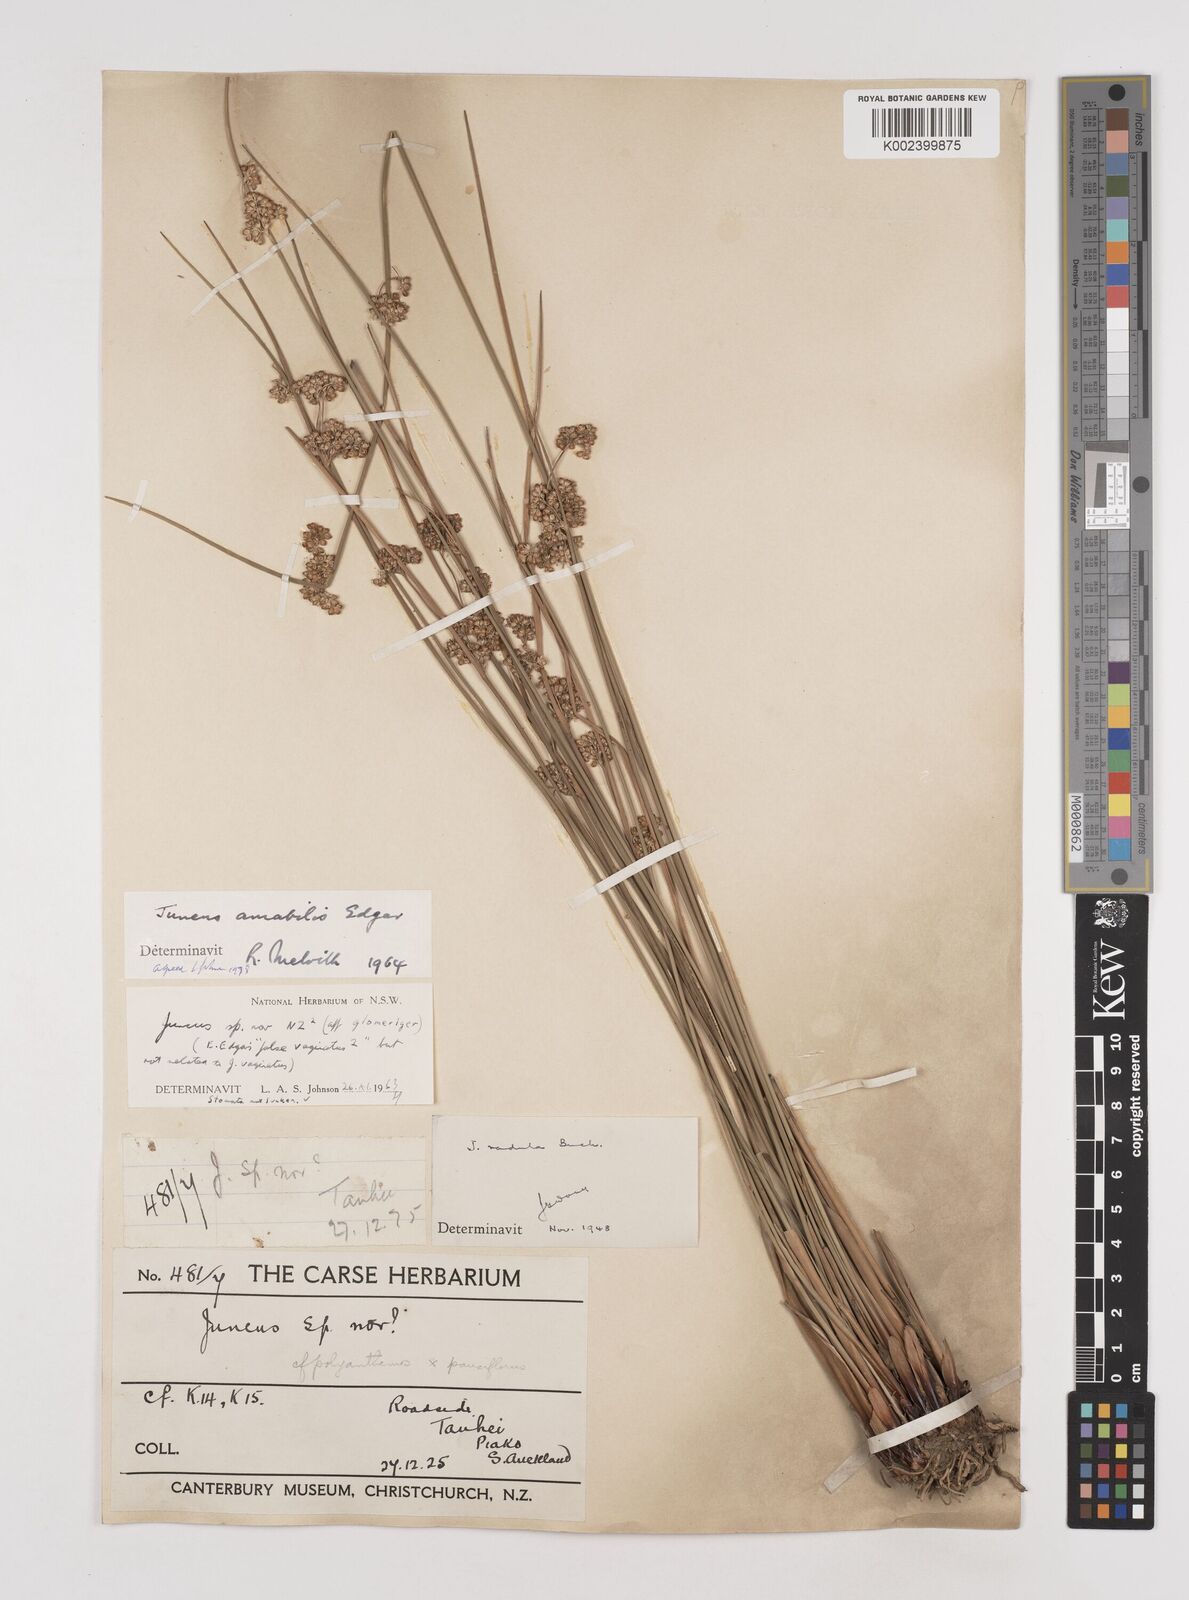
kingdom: Plantae
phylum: Tracheophyta
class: Liliopsida
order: Poales
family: Juncaceae
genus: Juncus
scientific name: Juncus amabilis
